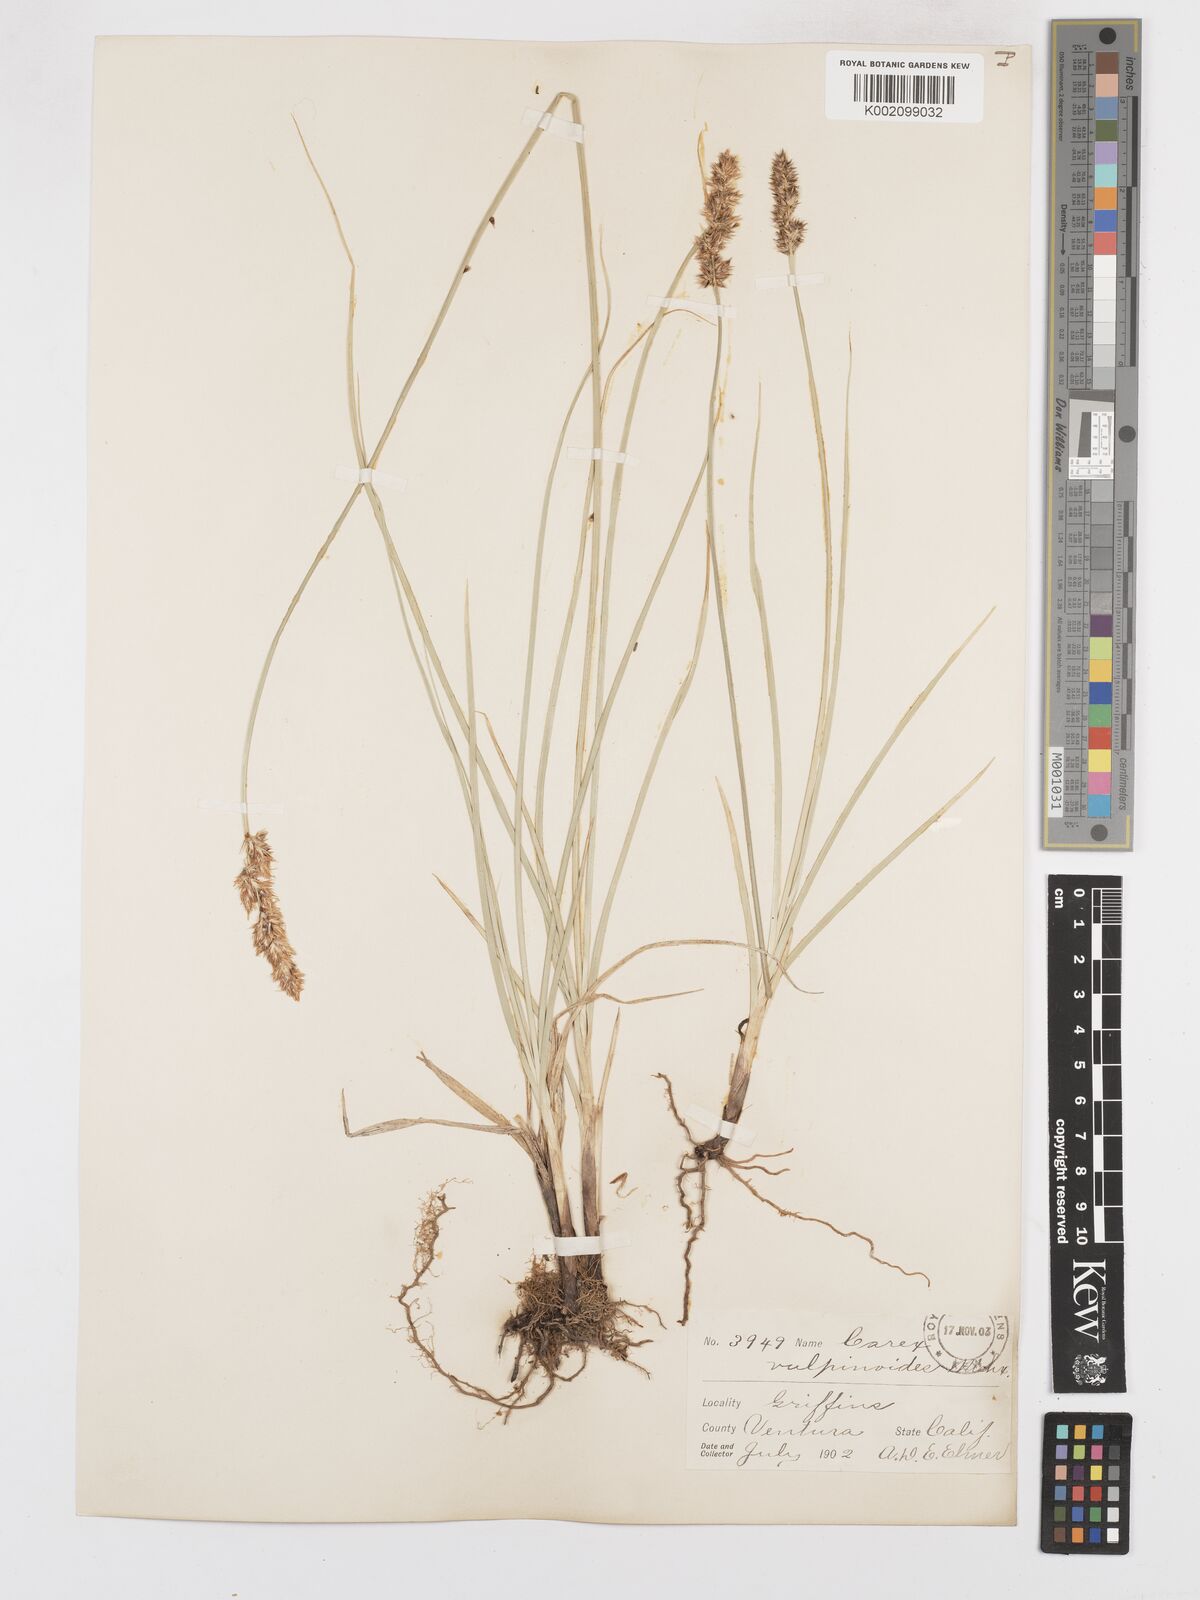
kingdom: Plantae
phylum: Tracheophyta
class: Liliopsida
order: Poales
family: Cyperaceae
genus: Carex
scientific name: Carex diandra
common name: Lesser tussock-sedge
